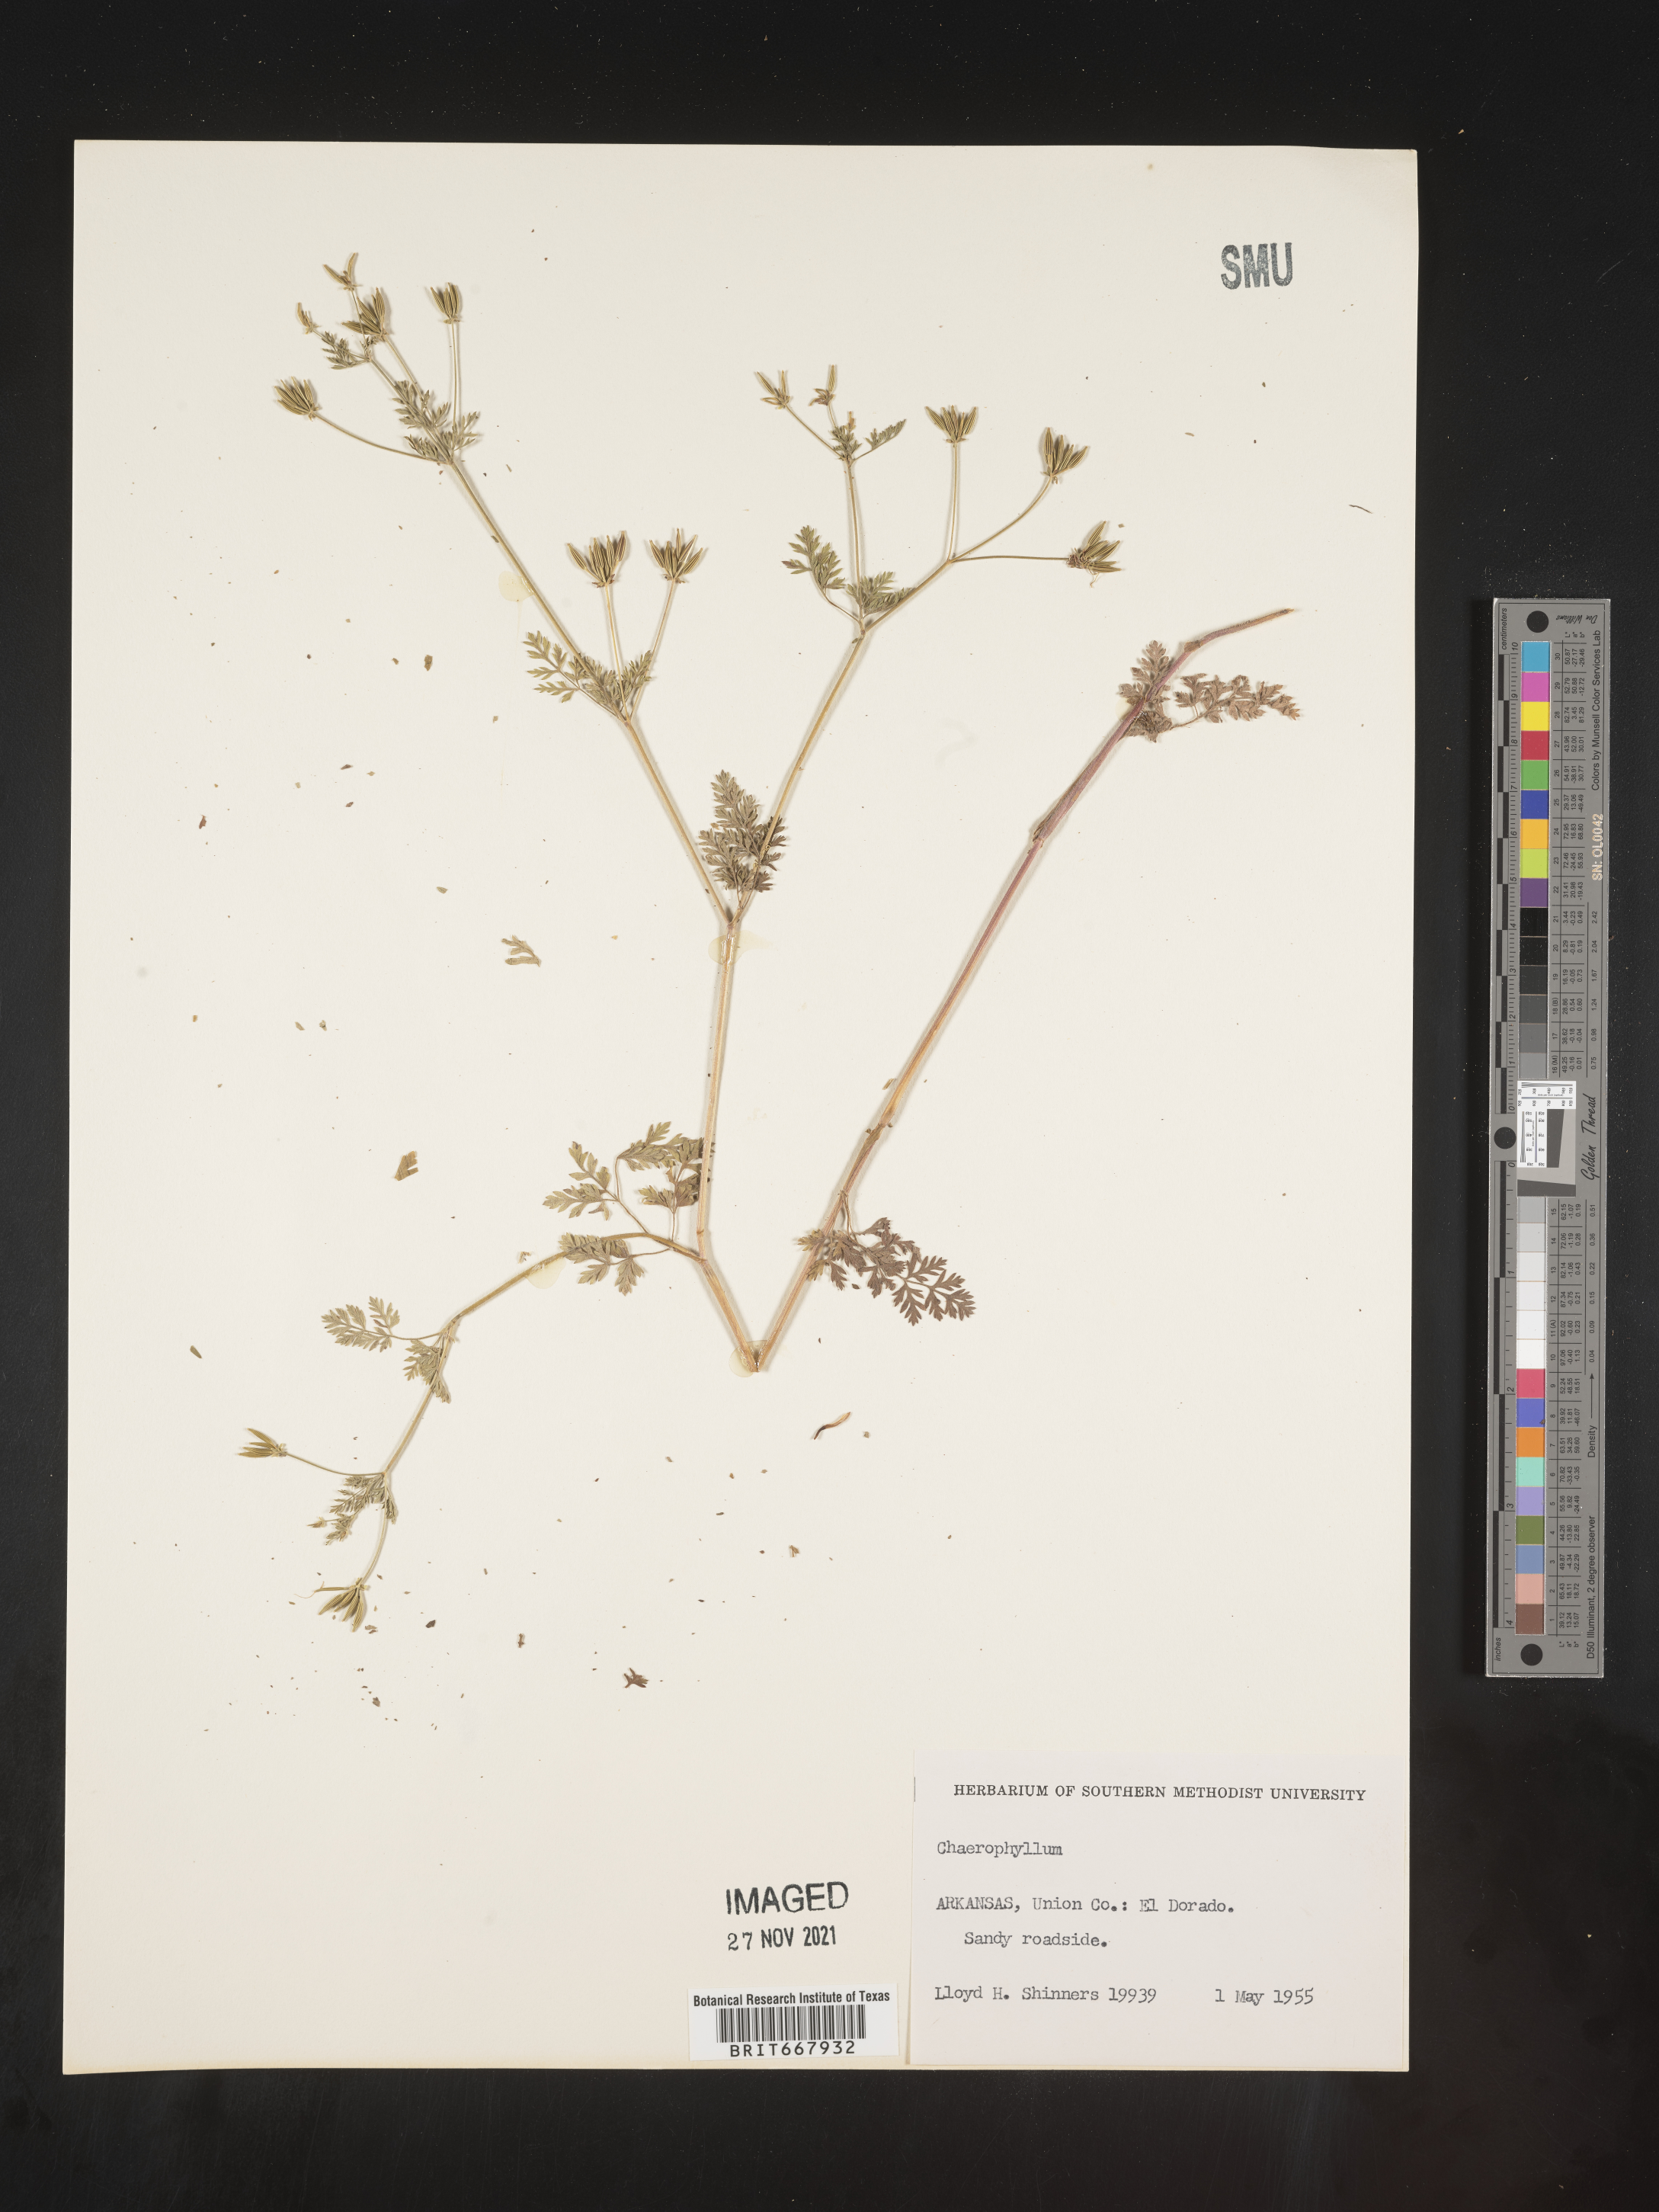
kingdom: Plantae
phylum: Tracheophyta
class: Magnoliopsida
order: Apiales
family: Apiaceae
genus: Chaerophyllum
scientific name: Chaerophyllum tainturieri
